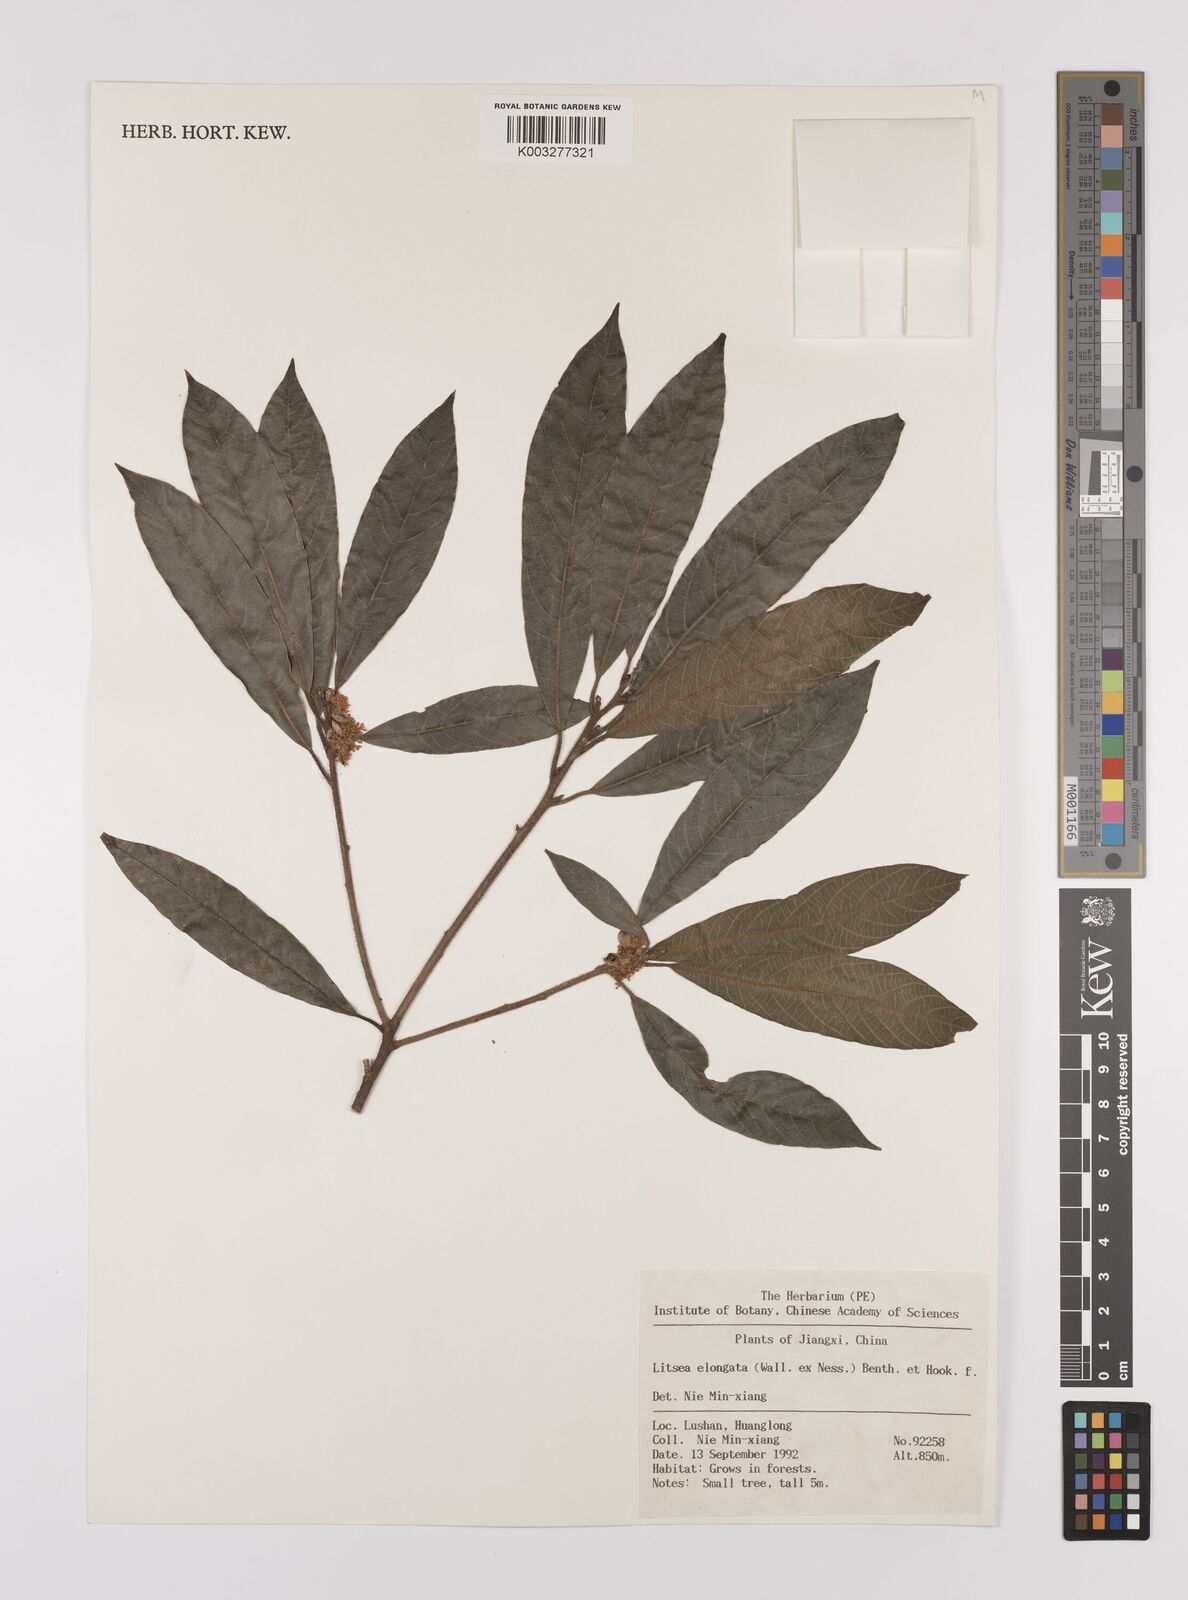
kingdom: Plantae
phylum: Tracheophyta
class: Magnoliopsida
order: Laurales
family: Lauraceae
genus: Litsea
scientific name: Litsea elongata
